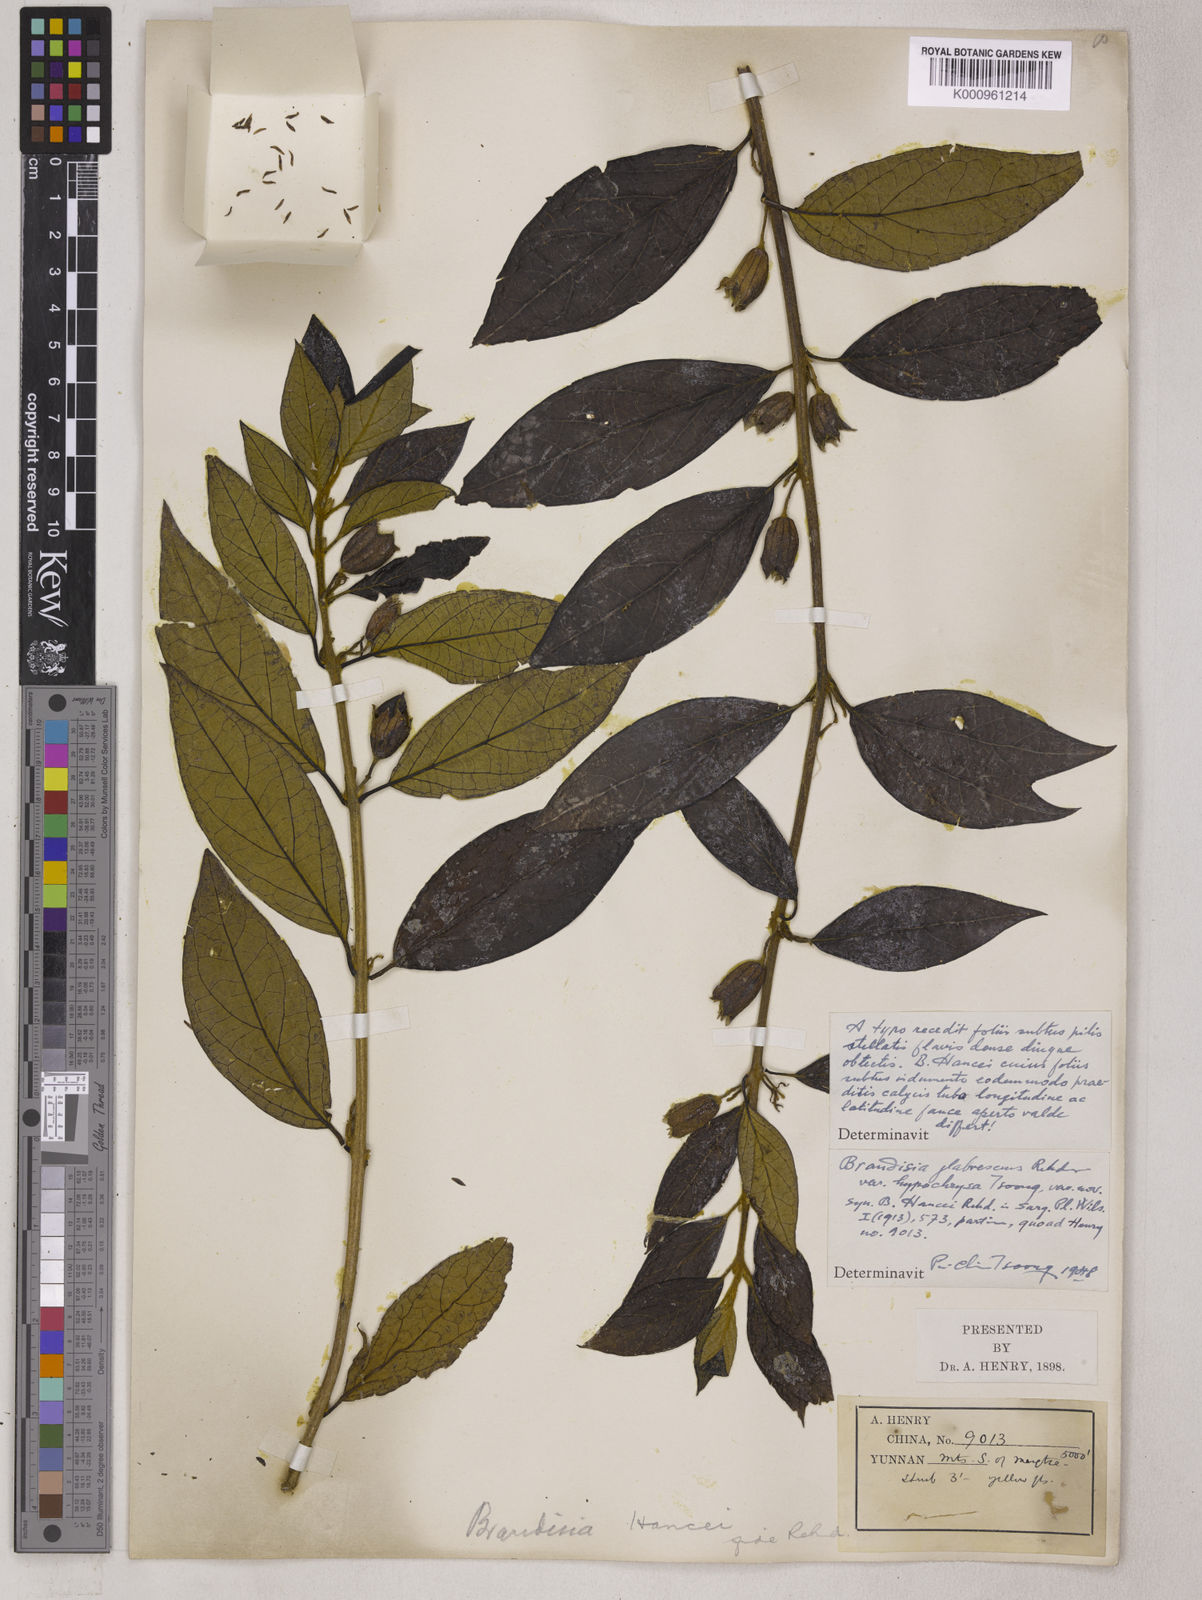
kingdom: Plantae
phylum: Tracheophyta
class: Magnoliopsida
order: Lamiales
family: Orobanchaceae
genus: Brandisia
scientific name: Brandisia glabrescens
